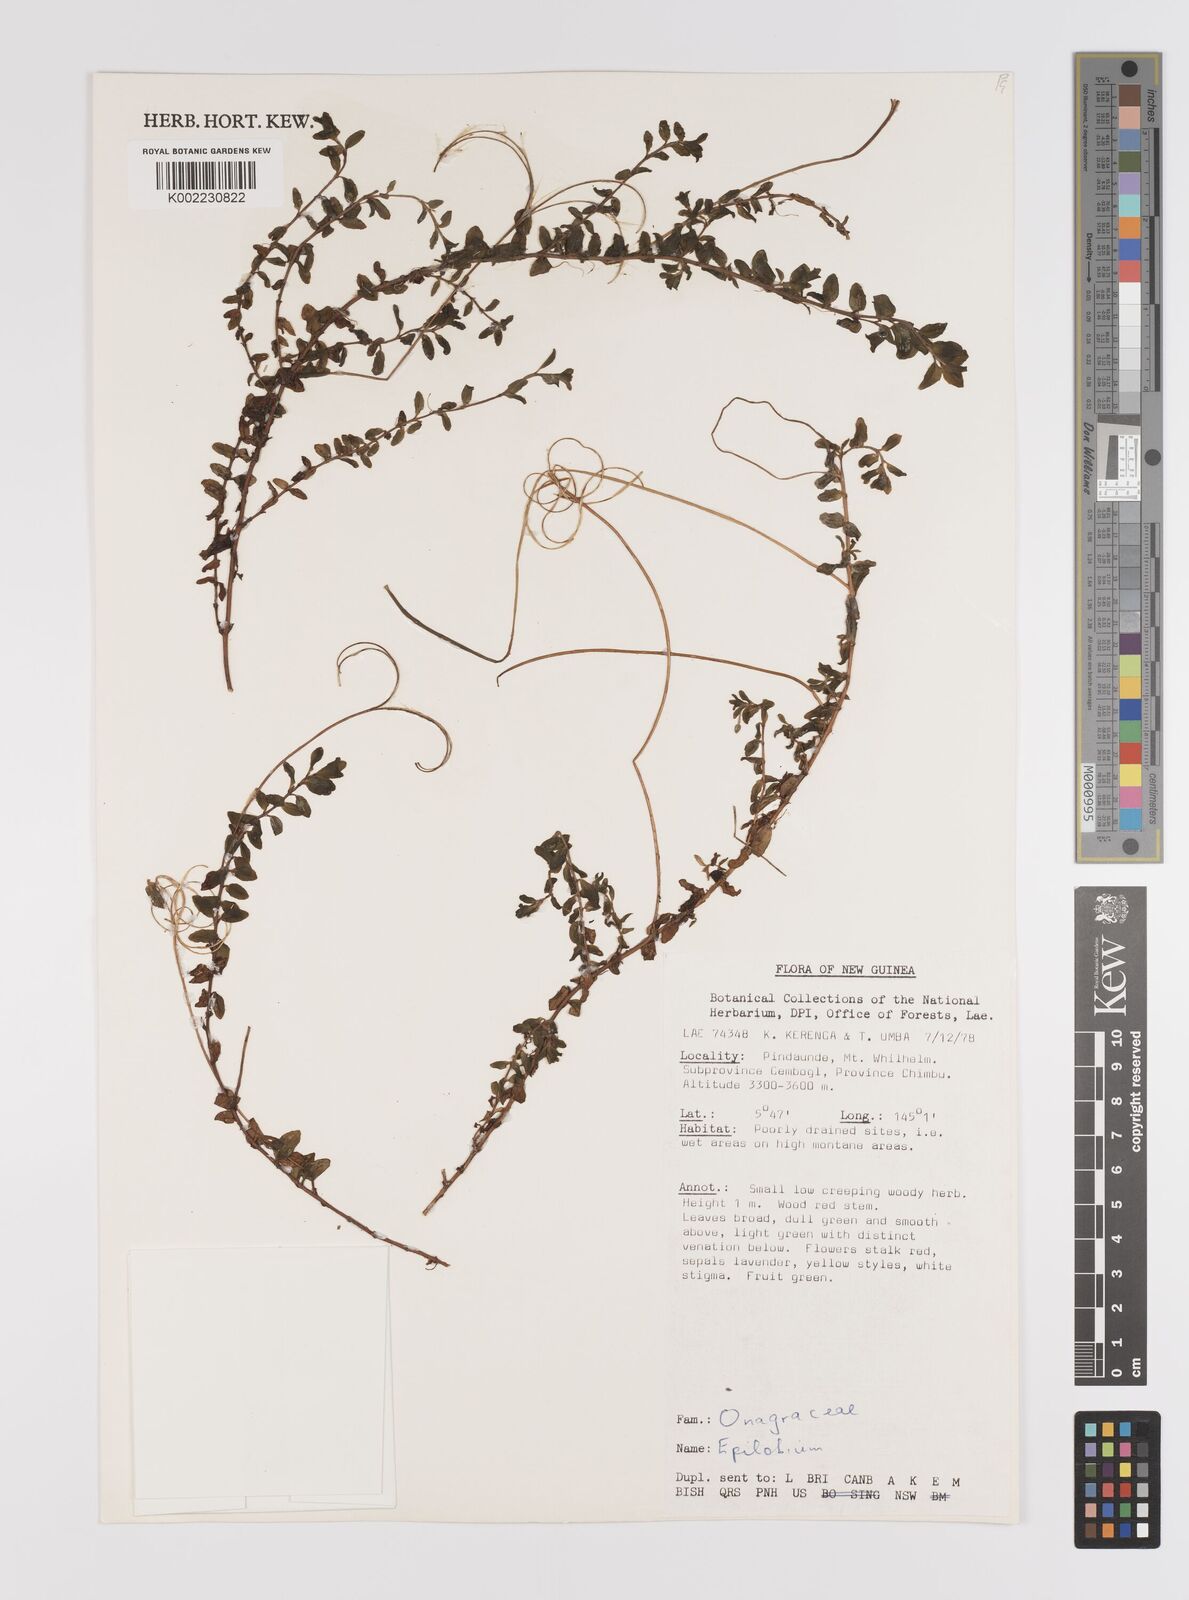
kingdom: Plantae
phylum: Tracheophyta
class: Magnoliopsida
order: Myrtales
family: Onagraceae
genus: Epilobium
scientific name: Epilobium
